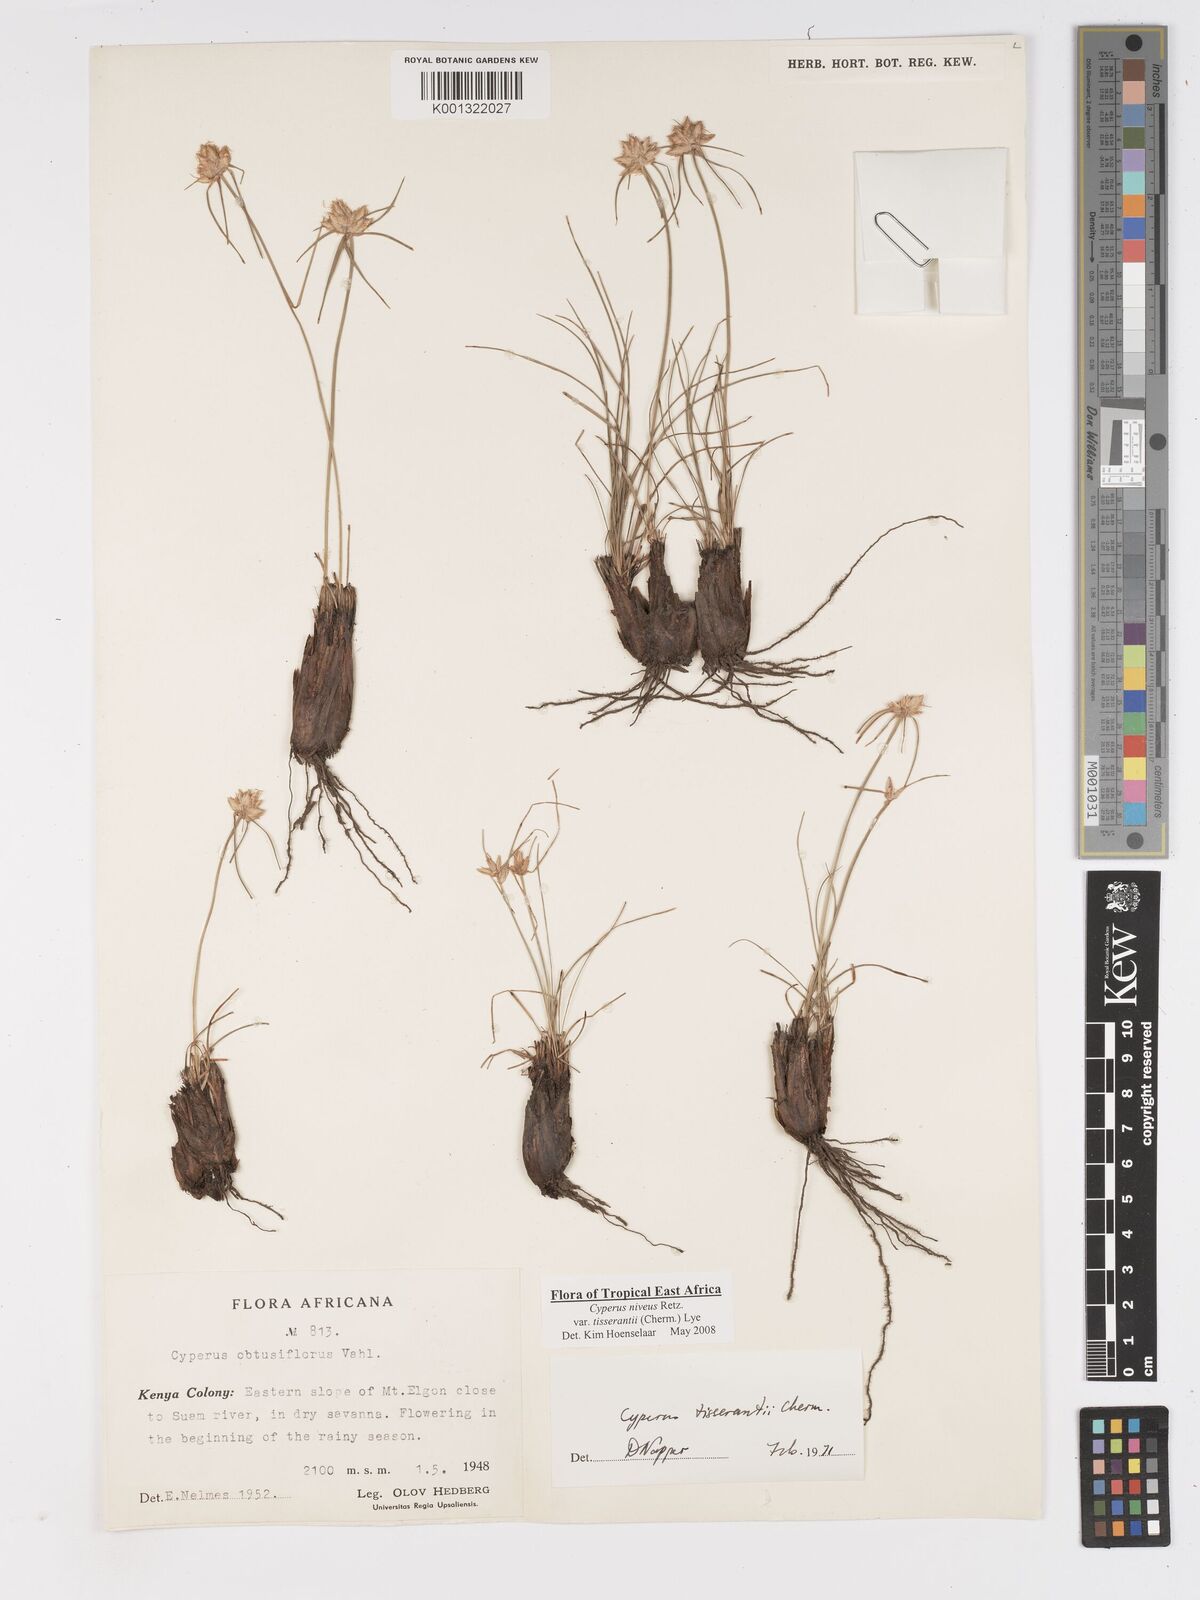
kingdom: Plantae
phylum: Tracheophyta
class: Liliopsida
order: Poales
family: Cyperaceae
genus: Cyperus
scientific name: Cyperus niveus
